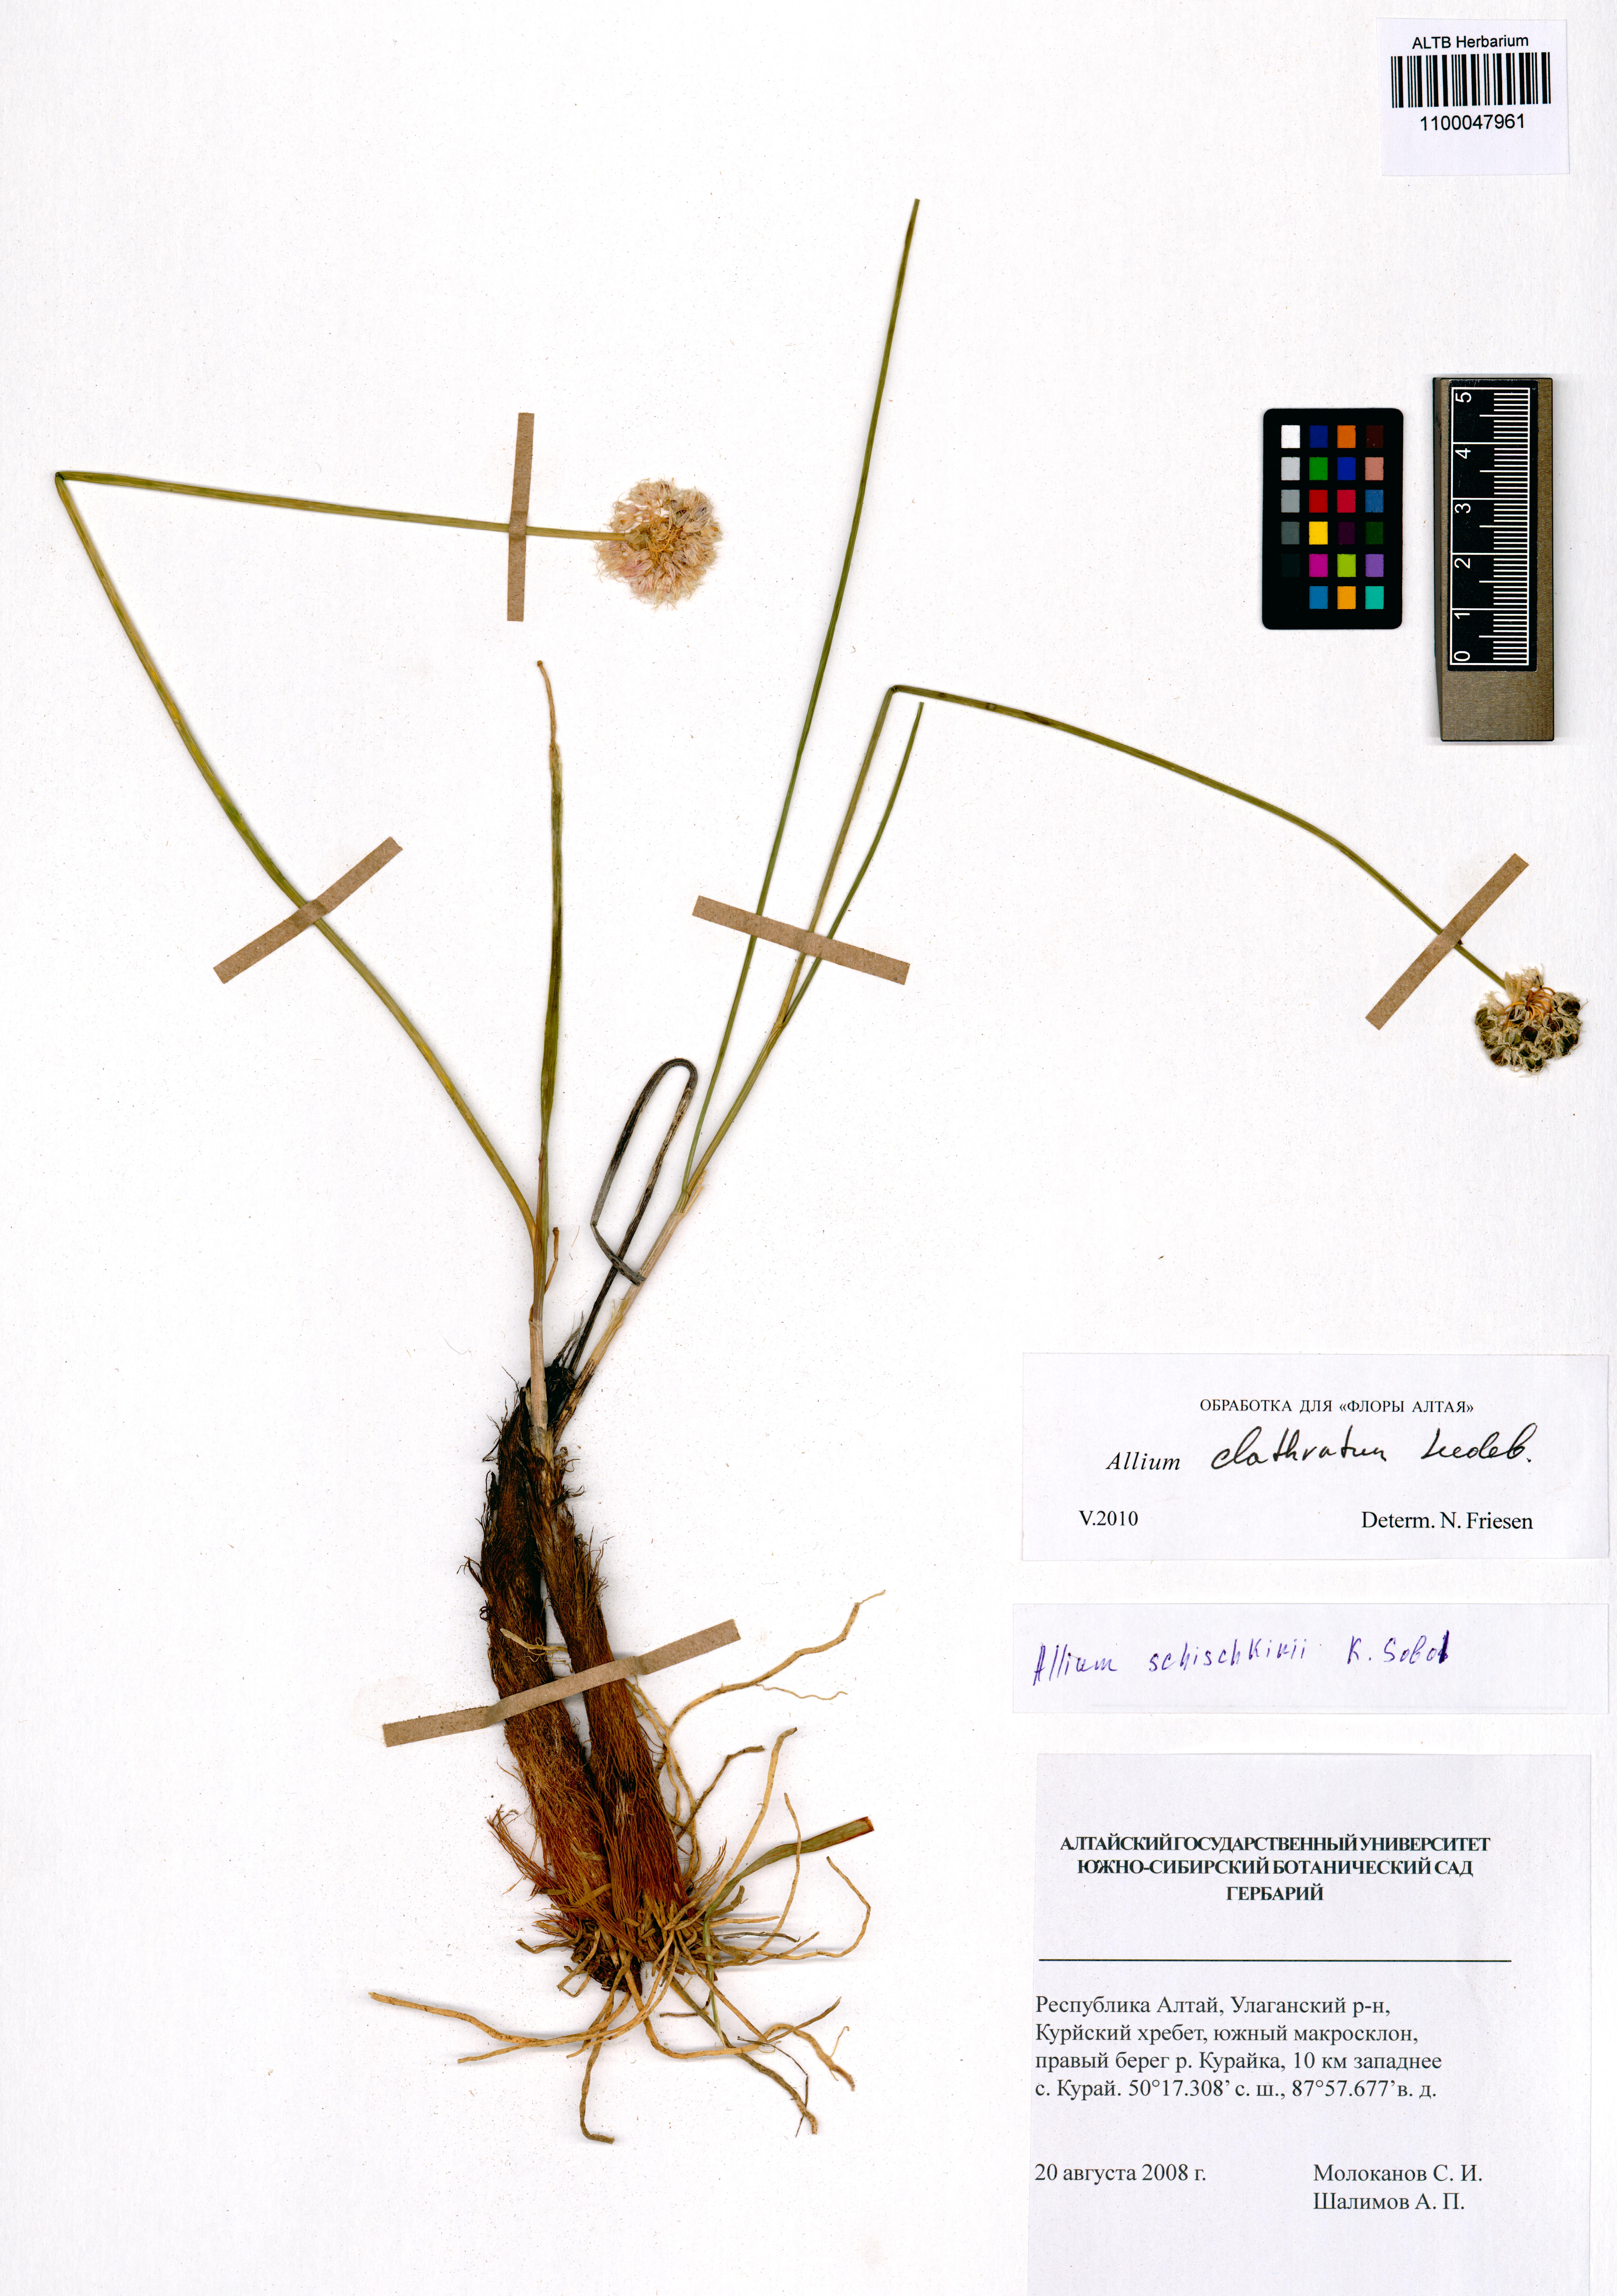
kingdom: Plantae
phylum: Tracheophyta
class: Liliopsida
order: Asparagales
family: Amaryllidaceae
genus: Allium
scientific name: Allium clathratum
